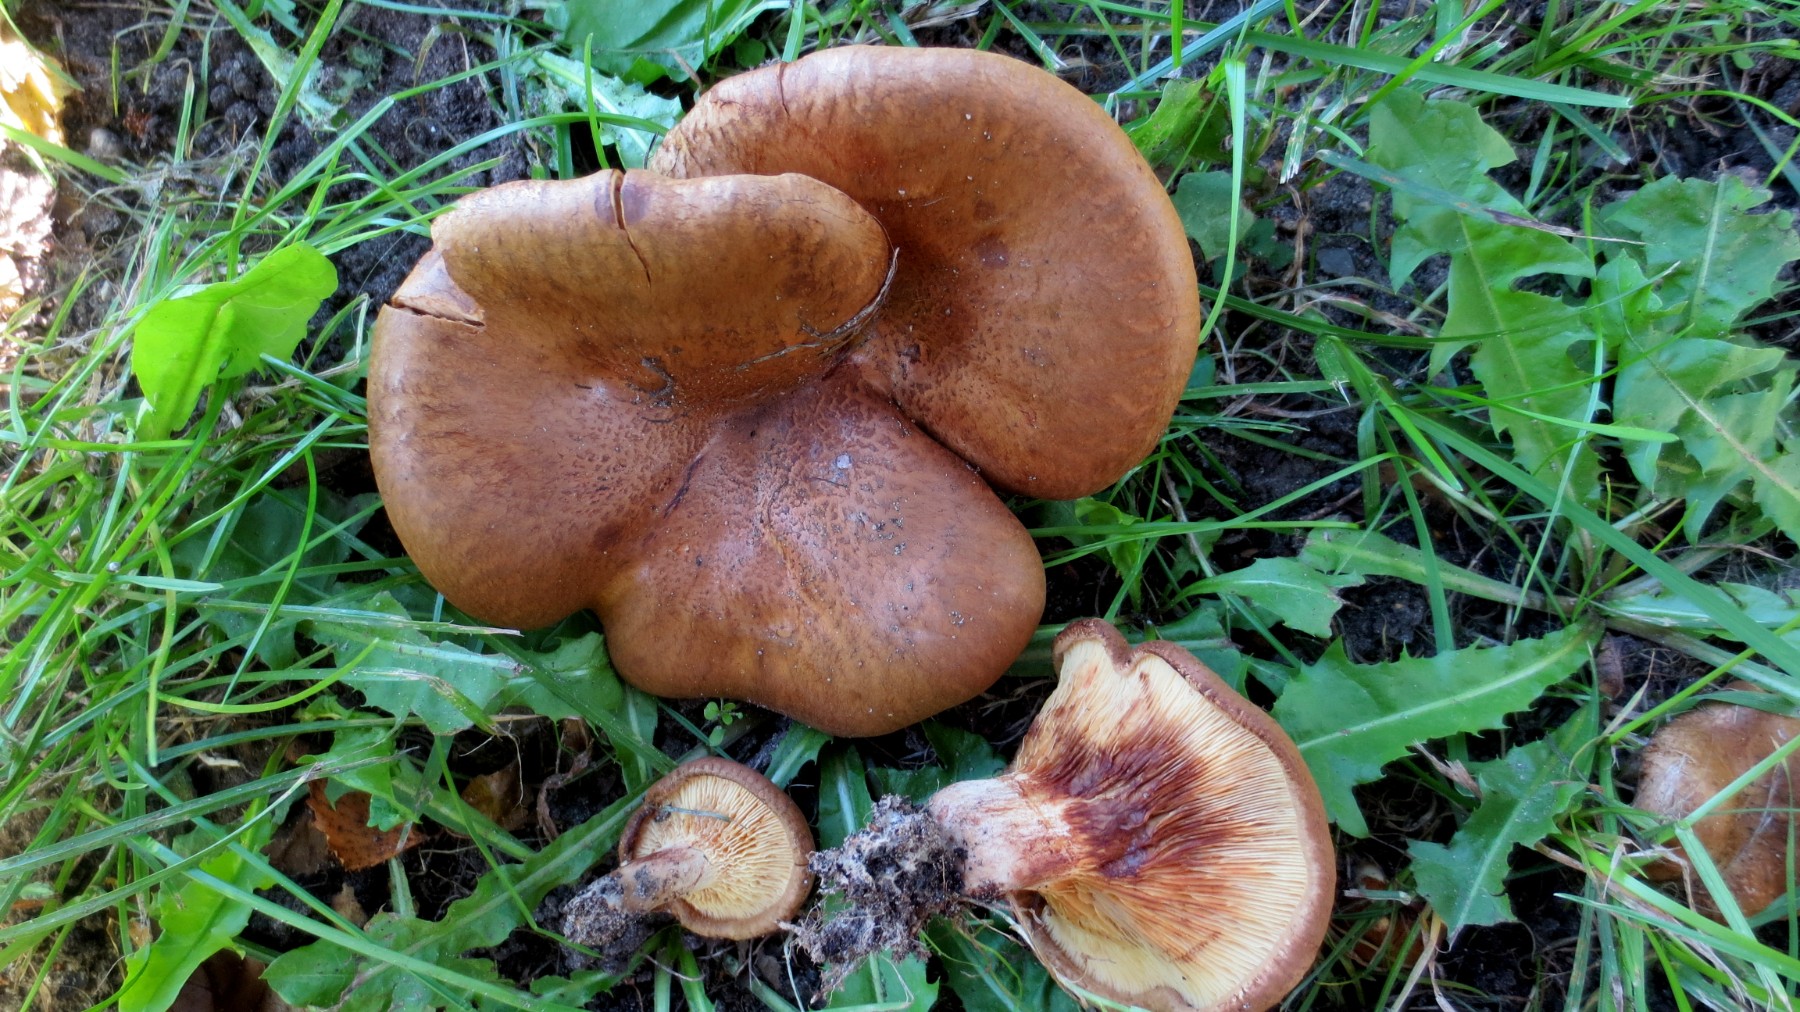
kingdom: Fungi
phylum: Basidiomycota
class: Agaricomycetes
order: Boletales
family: Paxillaceae
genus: Paxillus
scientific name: Paxillus rubicundulus
